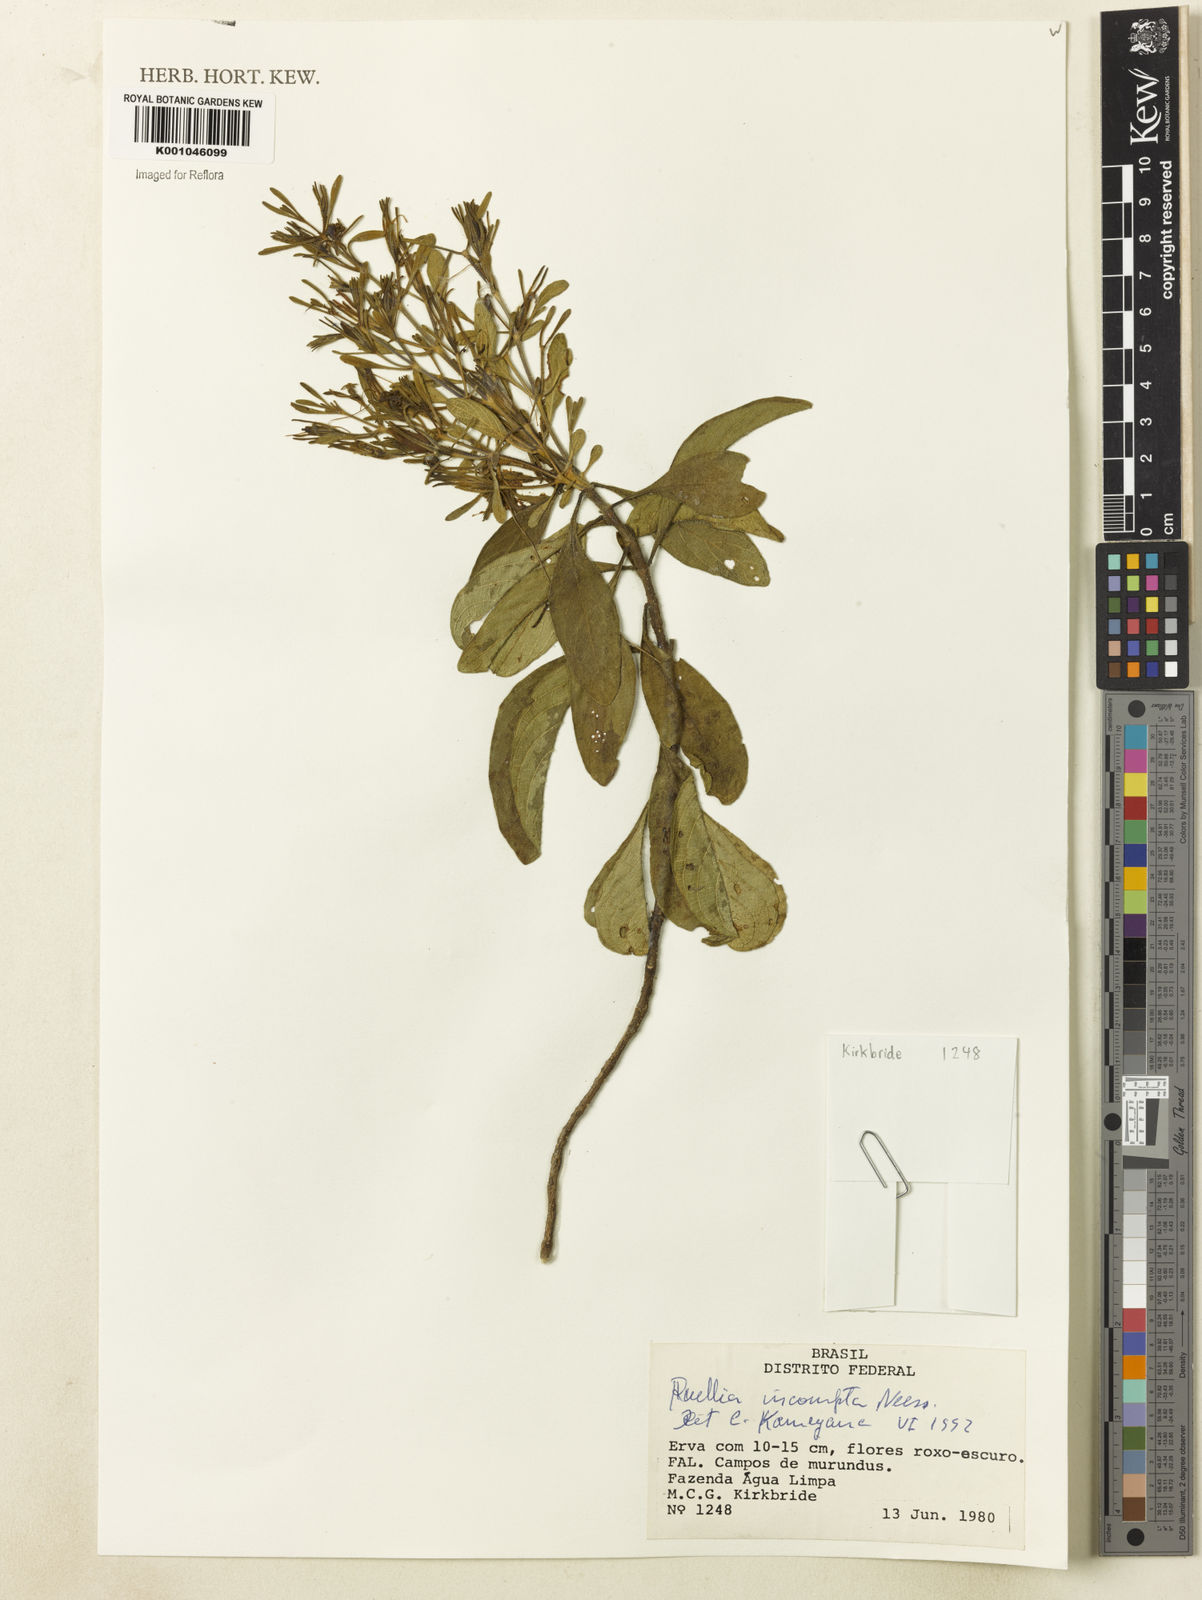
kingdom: Plantae
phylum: Tracheophyta
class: Magnoliopsida
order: Lamiales
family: Acanthaceae
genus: Ruellia
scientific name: Ruellia
